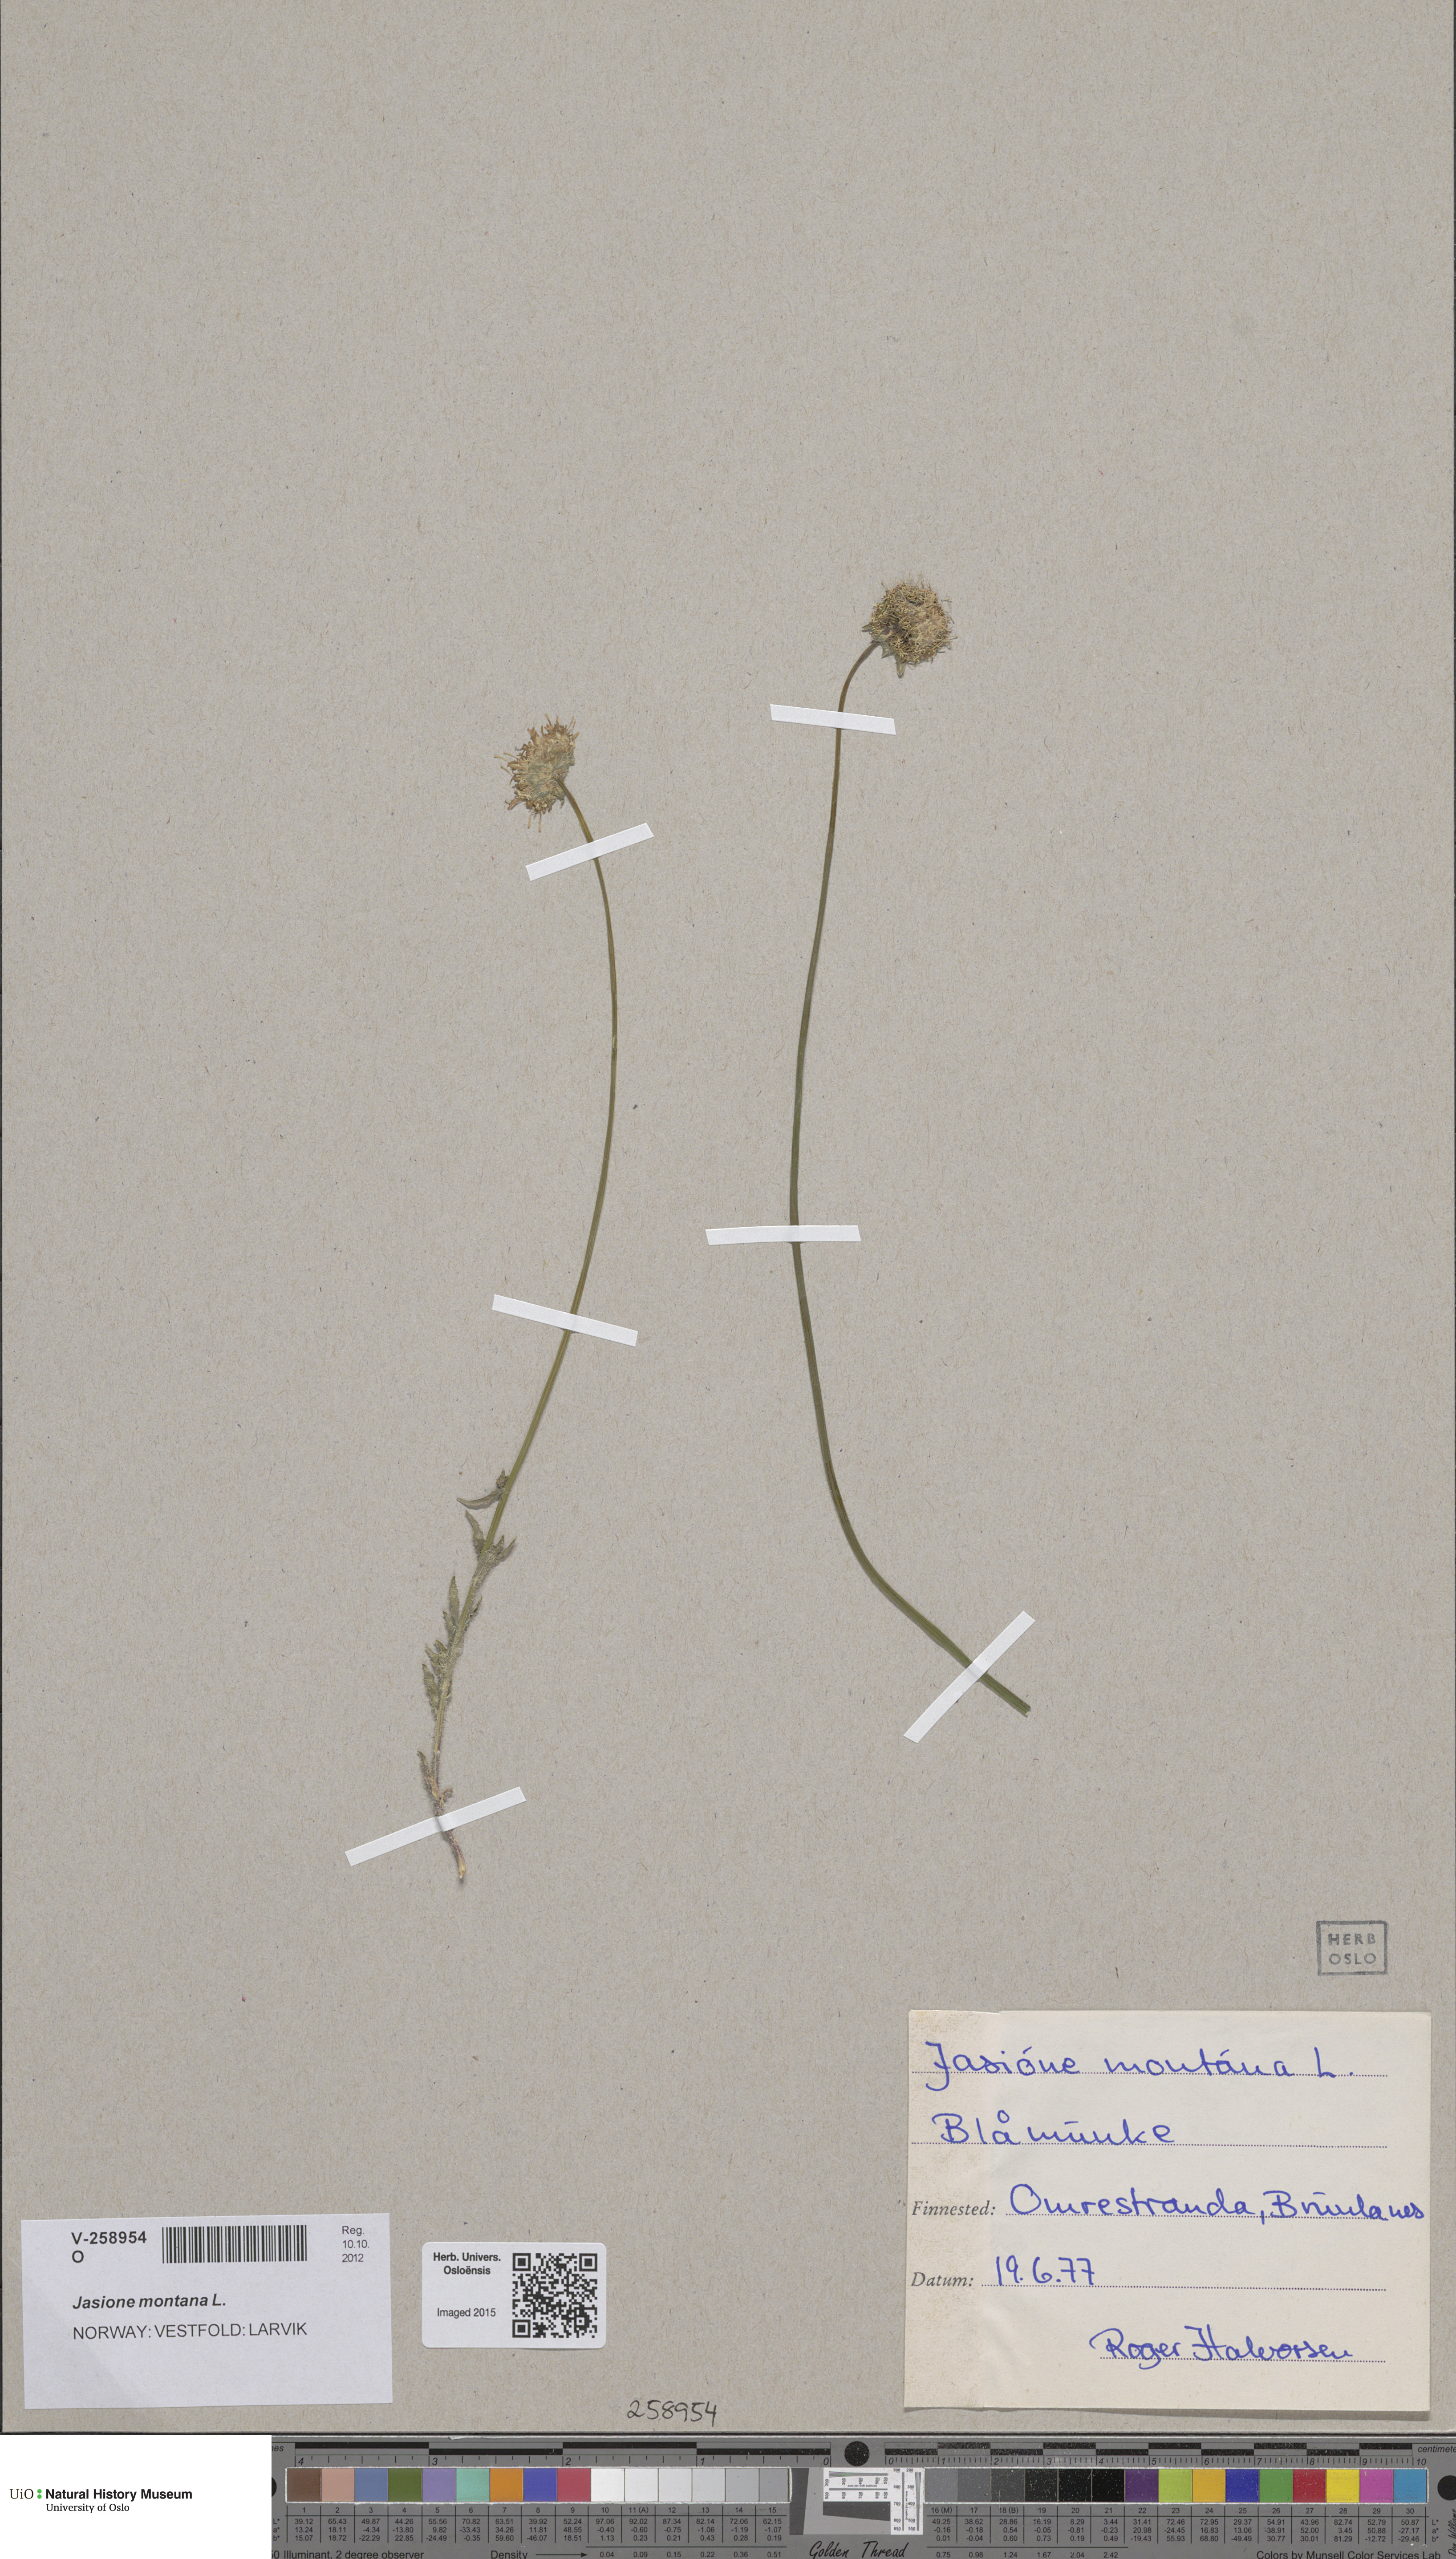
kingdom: Plantae
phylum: Tracheophyta
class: Magnoliopsida
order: Asterales
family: Campanulaceae
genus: Jasione
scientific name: Jasione montana
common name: Sheep's-bit
